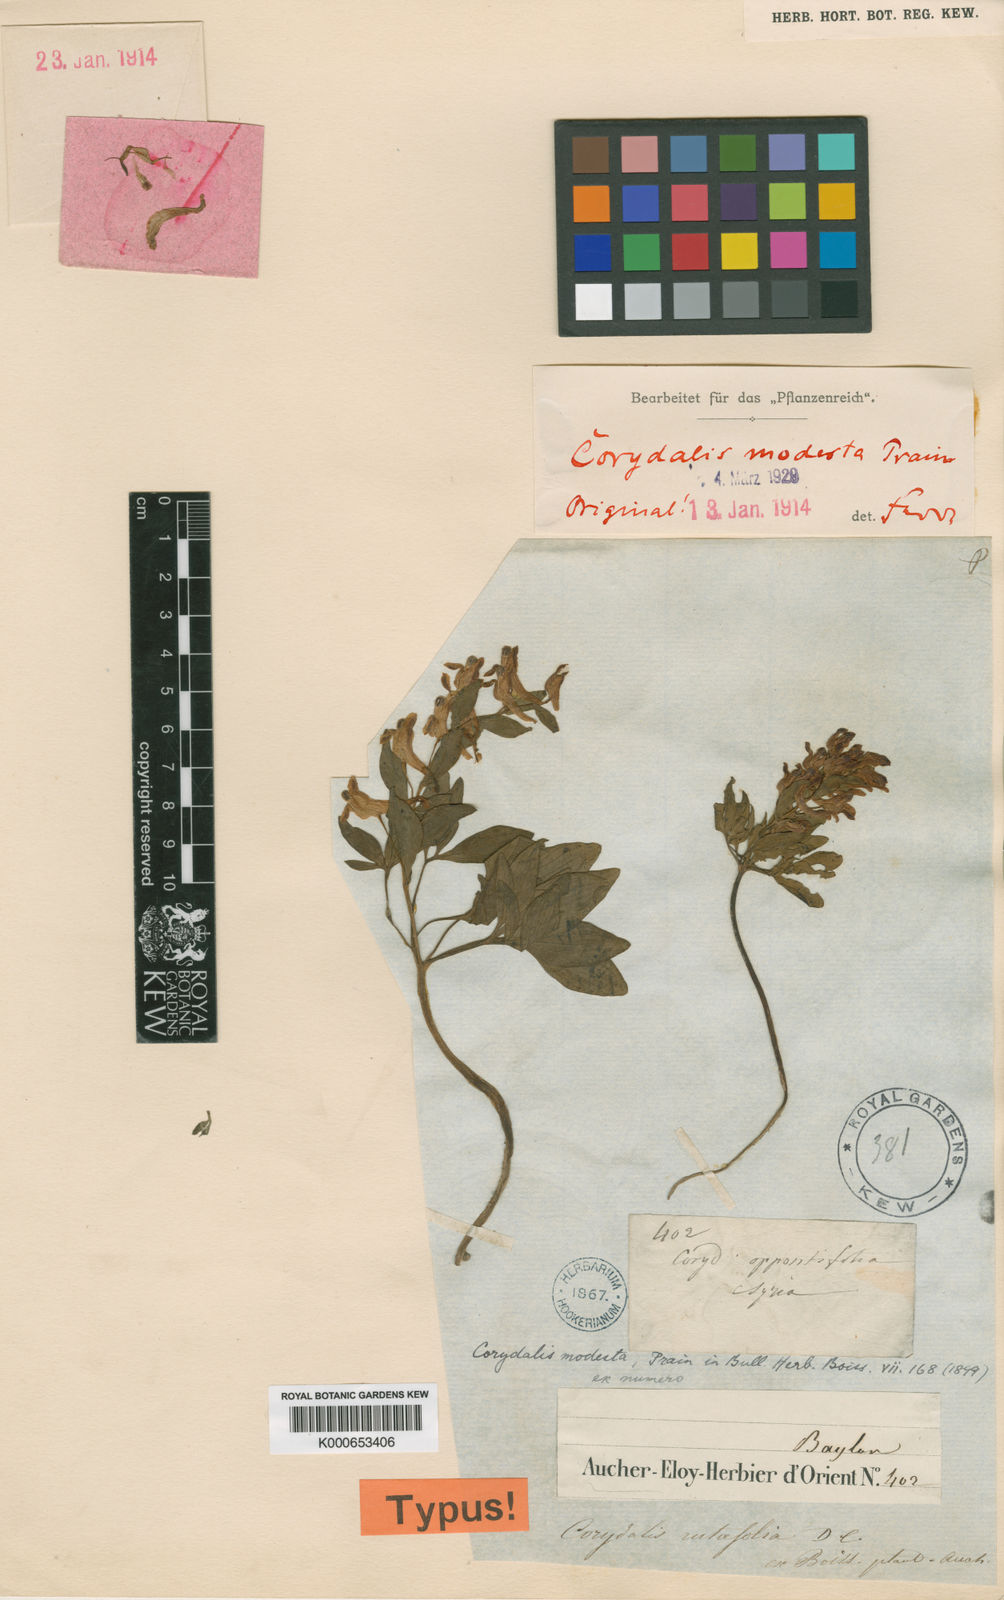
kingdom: Plantae
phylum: Tracheophyta
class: Magnoliopsida
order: Ranunculales
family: Papaveraceae
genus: Corydalis
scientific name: Corydalis rutifolia
